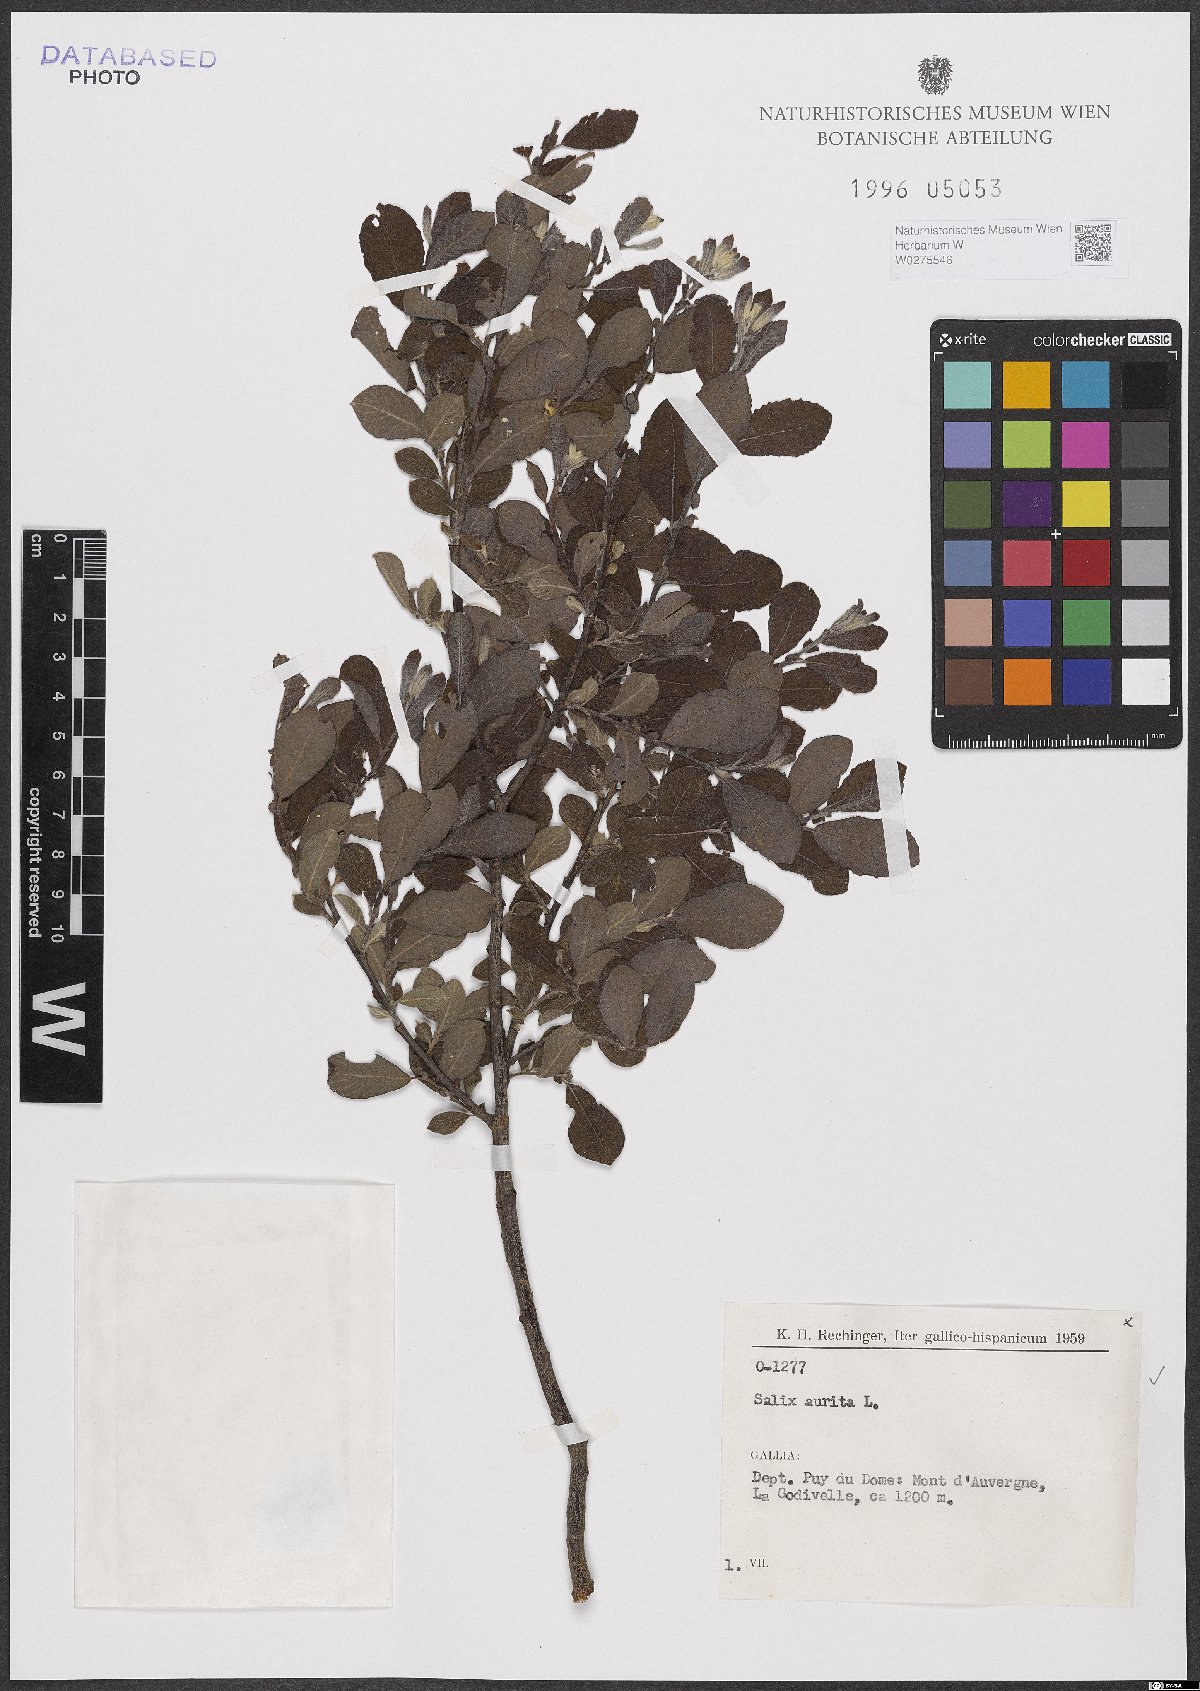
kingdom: Plantae
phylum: Tracheophyta
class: Magnoliopsida
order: Malpighiales
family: Salicaceae
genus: Salix
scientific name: Salix aurita
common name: Eared willow
